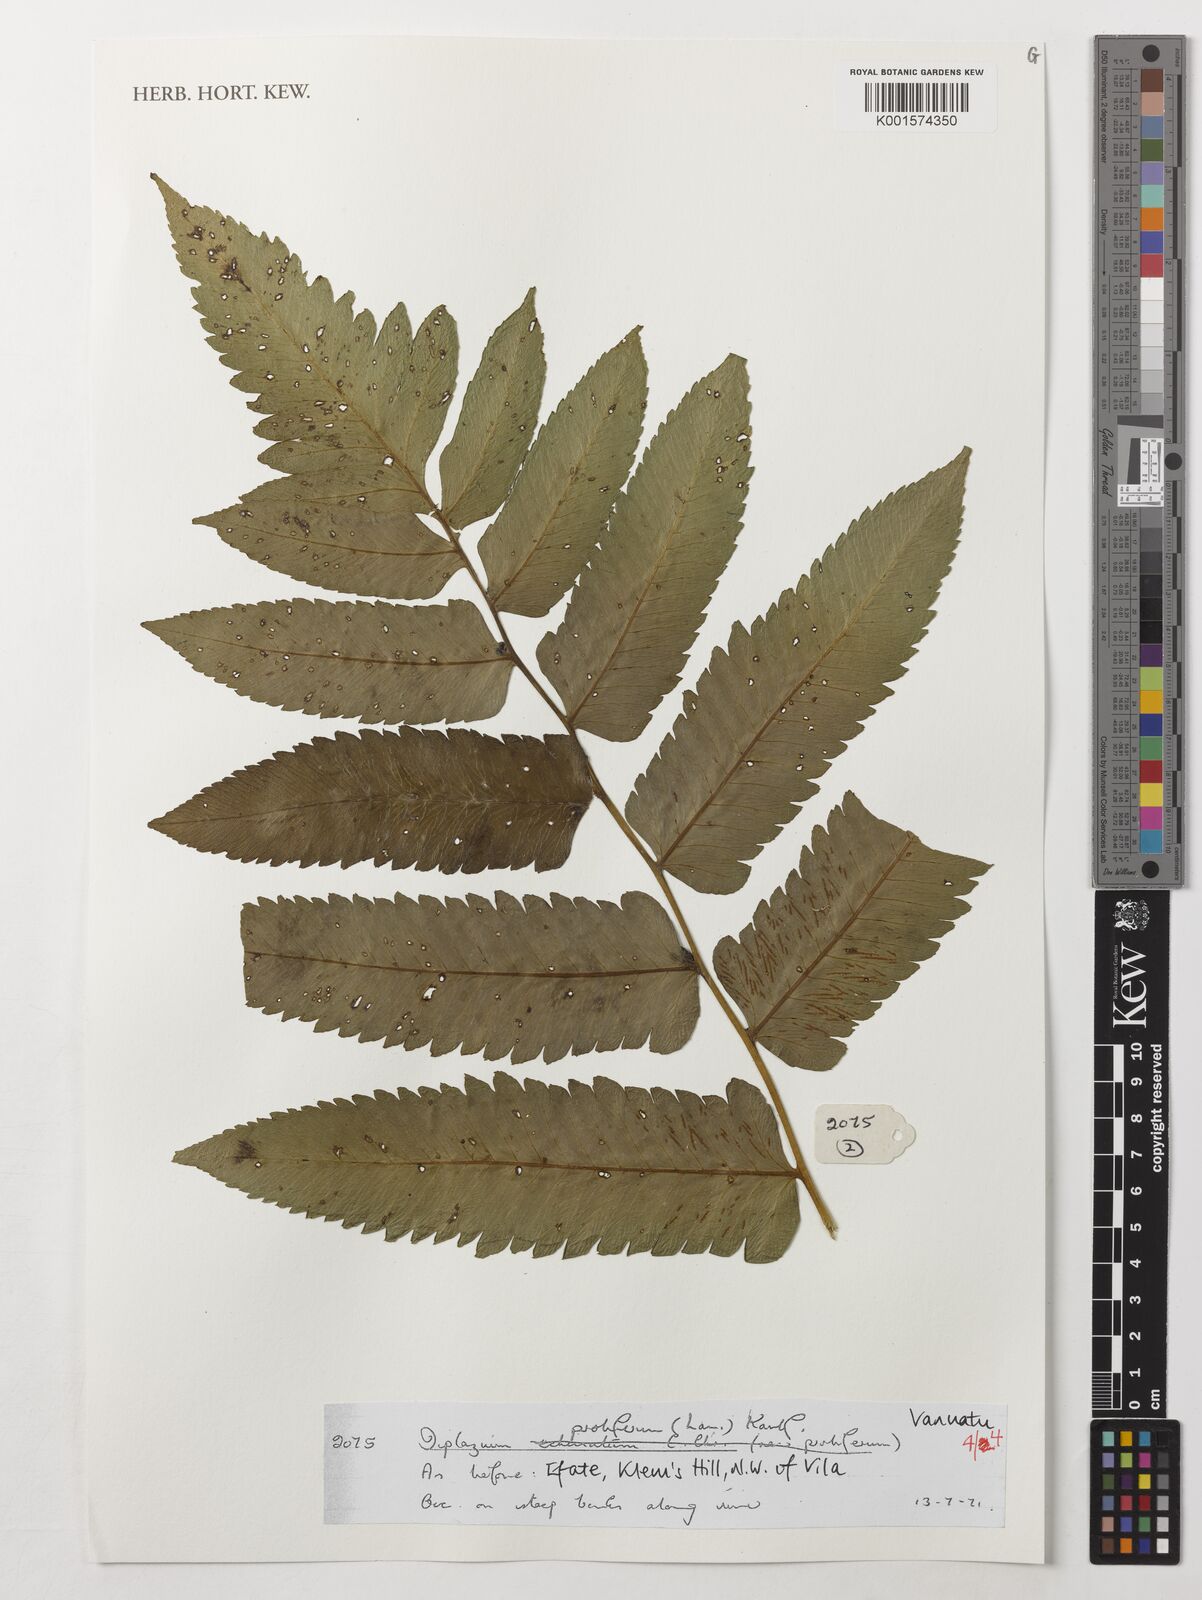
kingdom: Plantae
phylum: Tracheophyta
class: Polypodiopsida
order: Polypodiales
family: Athyriaceae
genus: Diplazium
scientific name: Diplazium proliferum
